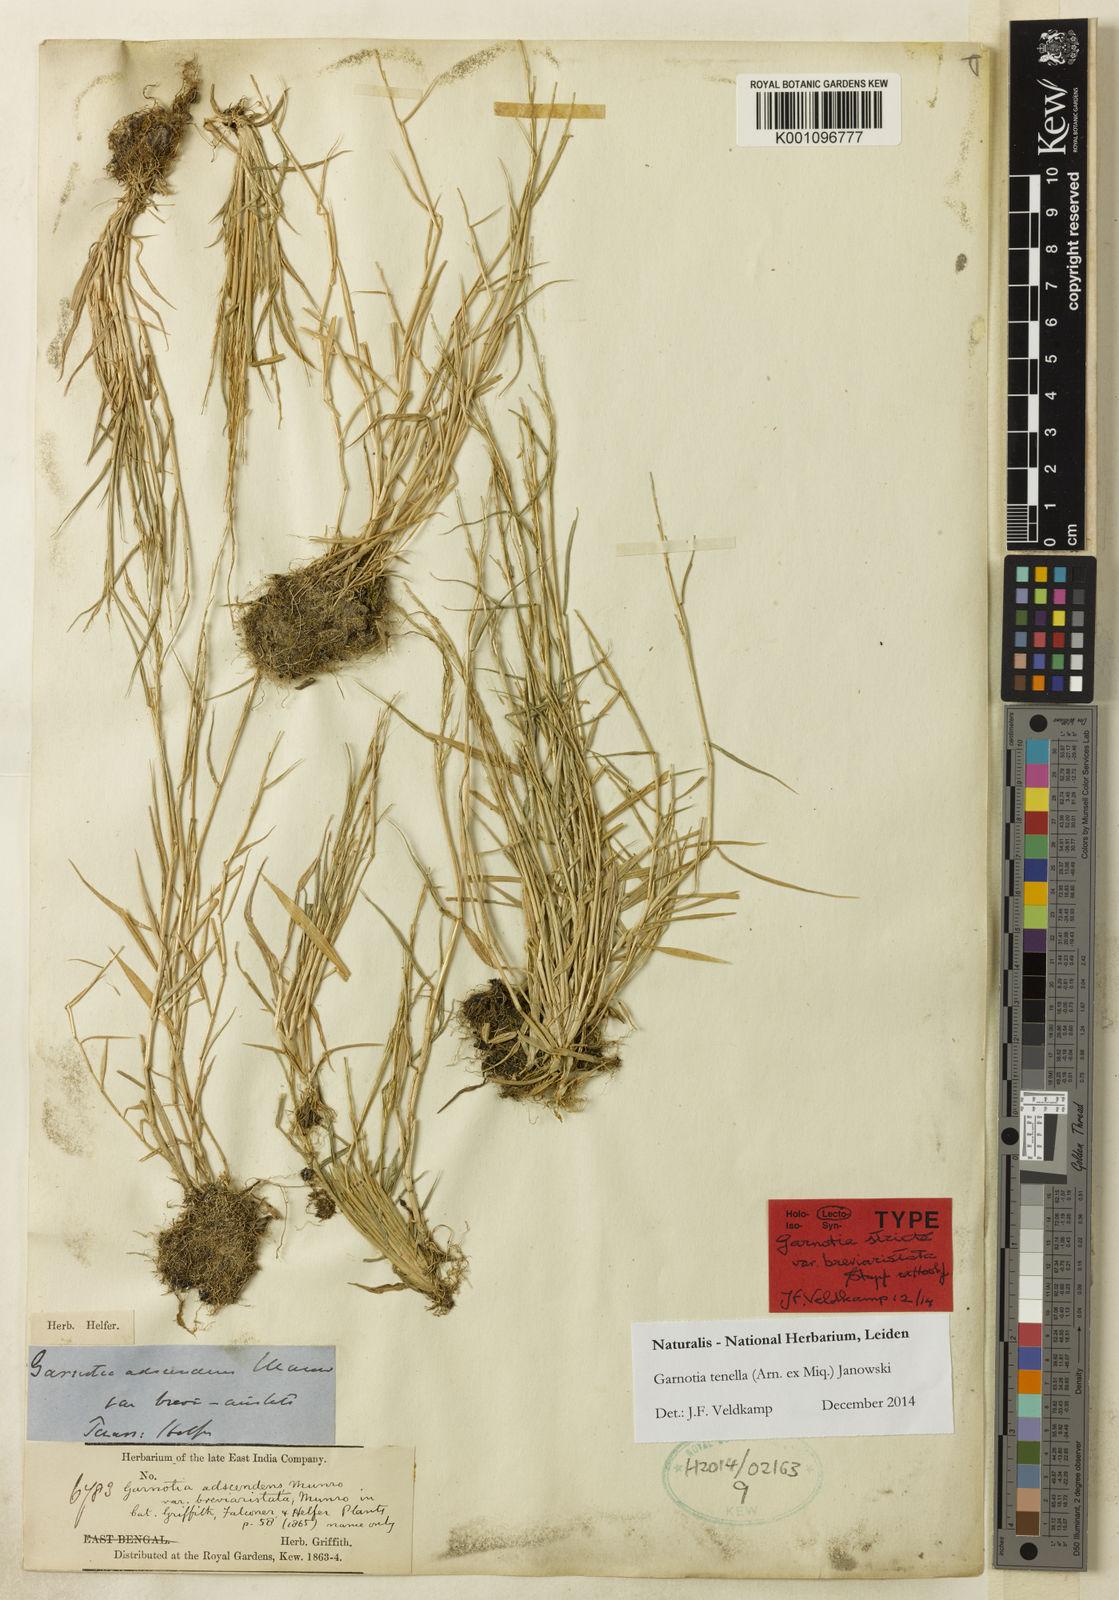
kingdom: Plantae
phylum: Tracheophyta
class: Liliopsida
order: Poales
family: Poaceae
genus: Garnotia
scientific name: Garnotia stricta
